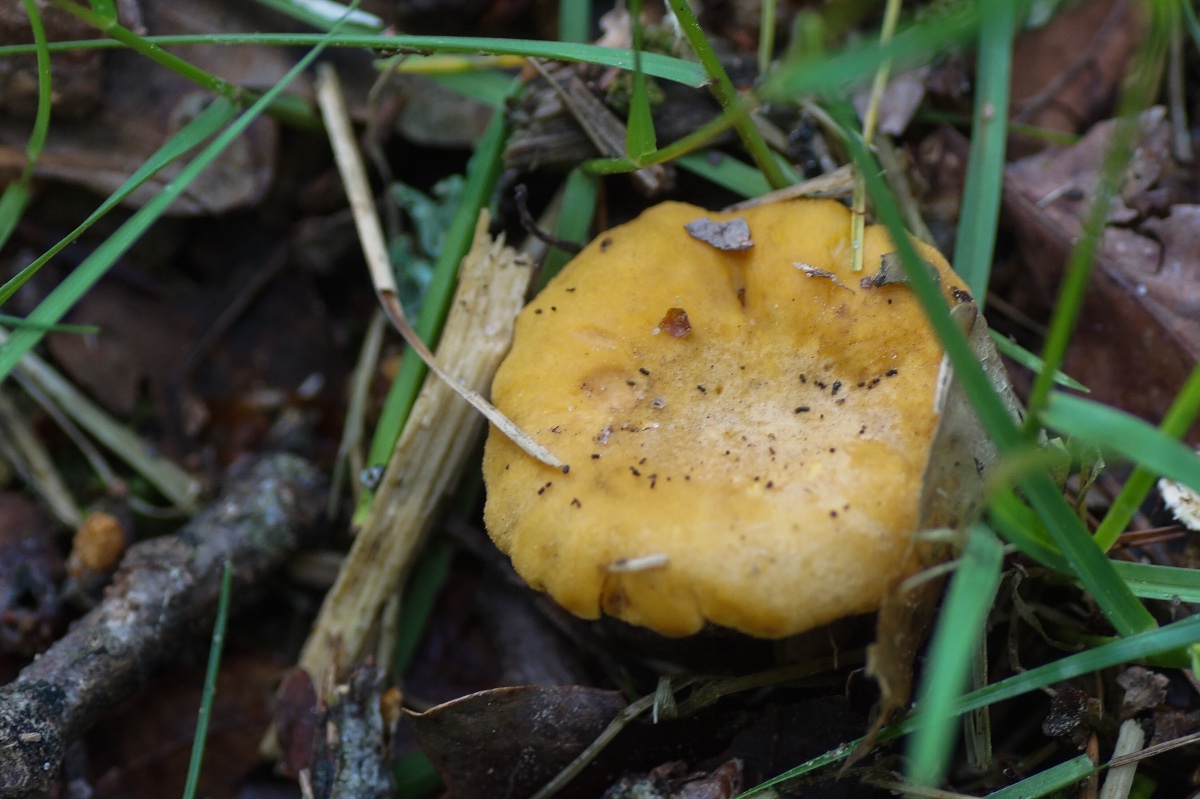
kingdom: Fungi
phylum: Basidiomycota
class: Agaricomycetes
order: Cantharellales
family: Hydnaceae
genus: Cantharellus
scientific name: Cantharellus cibarius
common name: almindelig kantarel
